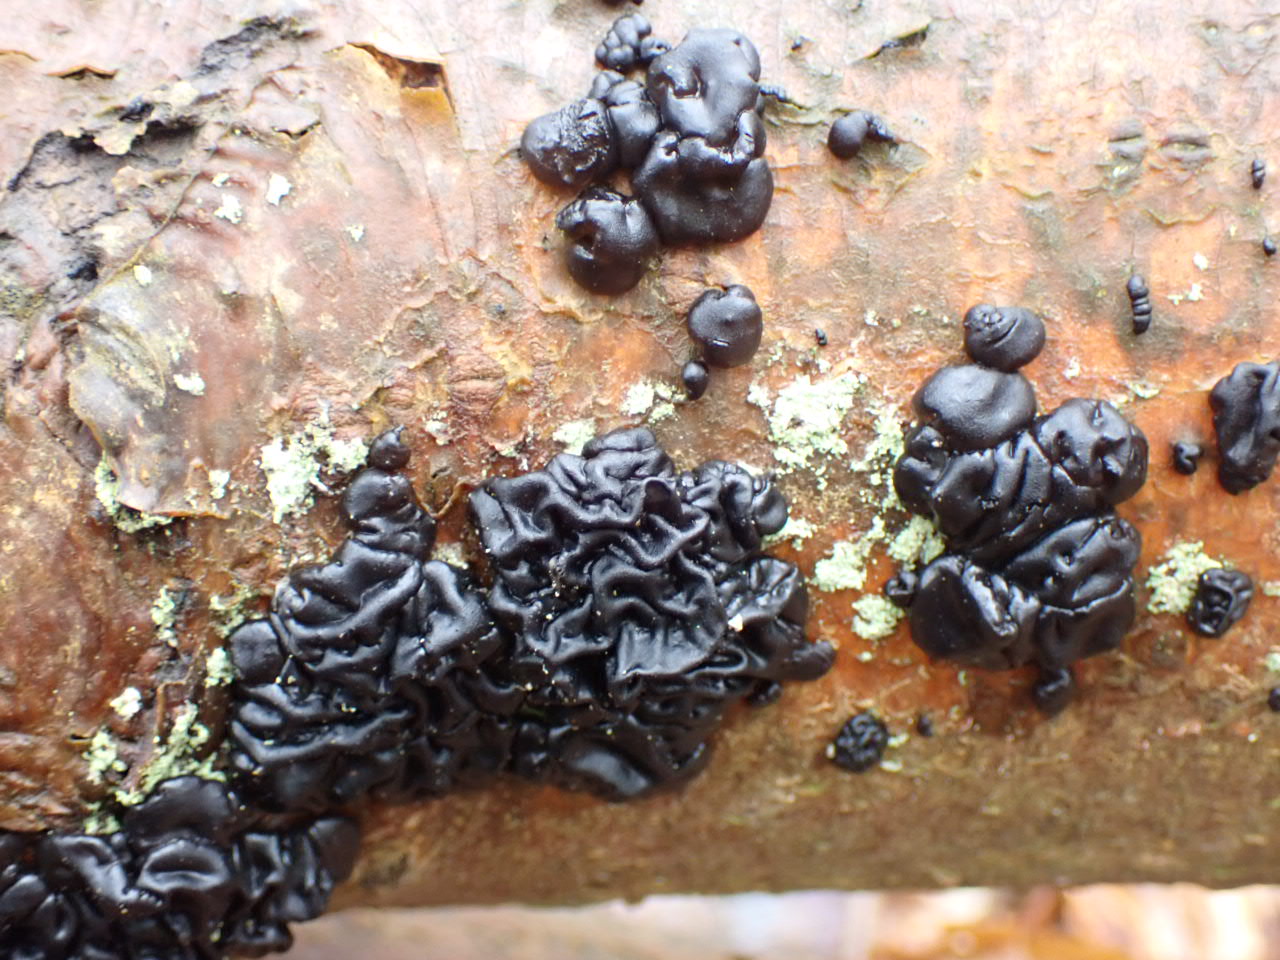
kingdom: Fungi
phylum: Basidiomycota
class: Agaricomycetes
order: Auriculariales
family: Auriculariaceae
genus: Exidia
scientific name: Exidia nigricans
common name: almindelig bævretop
